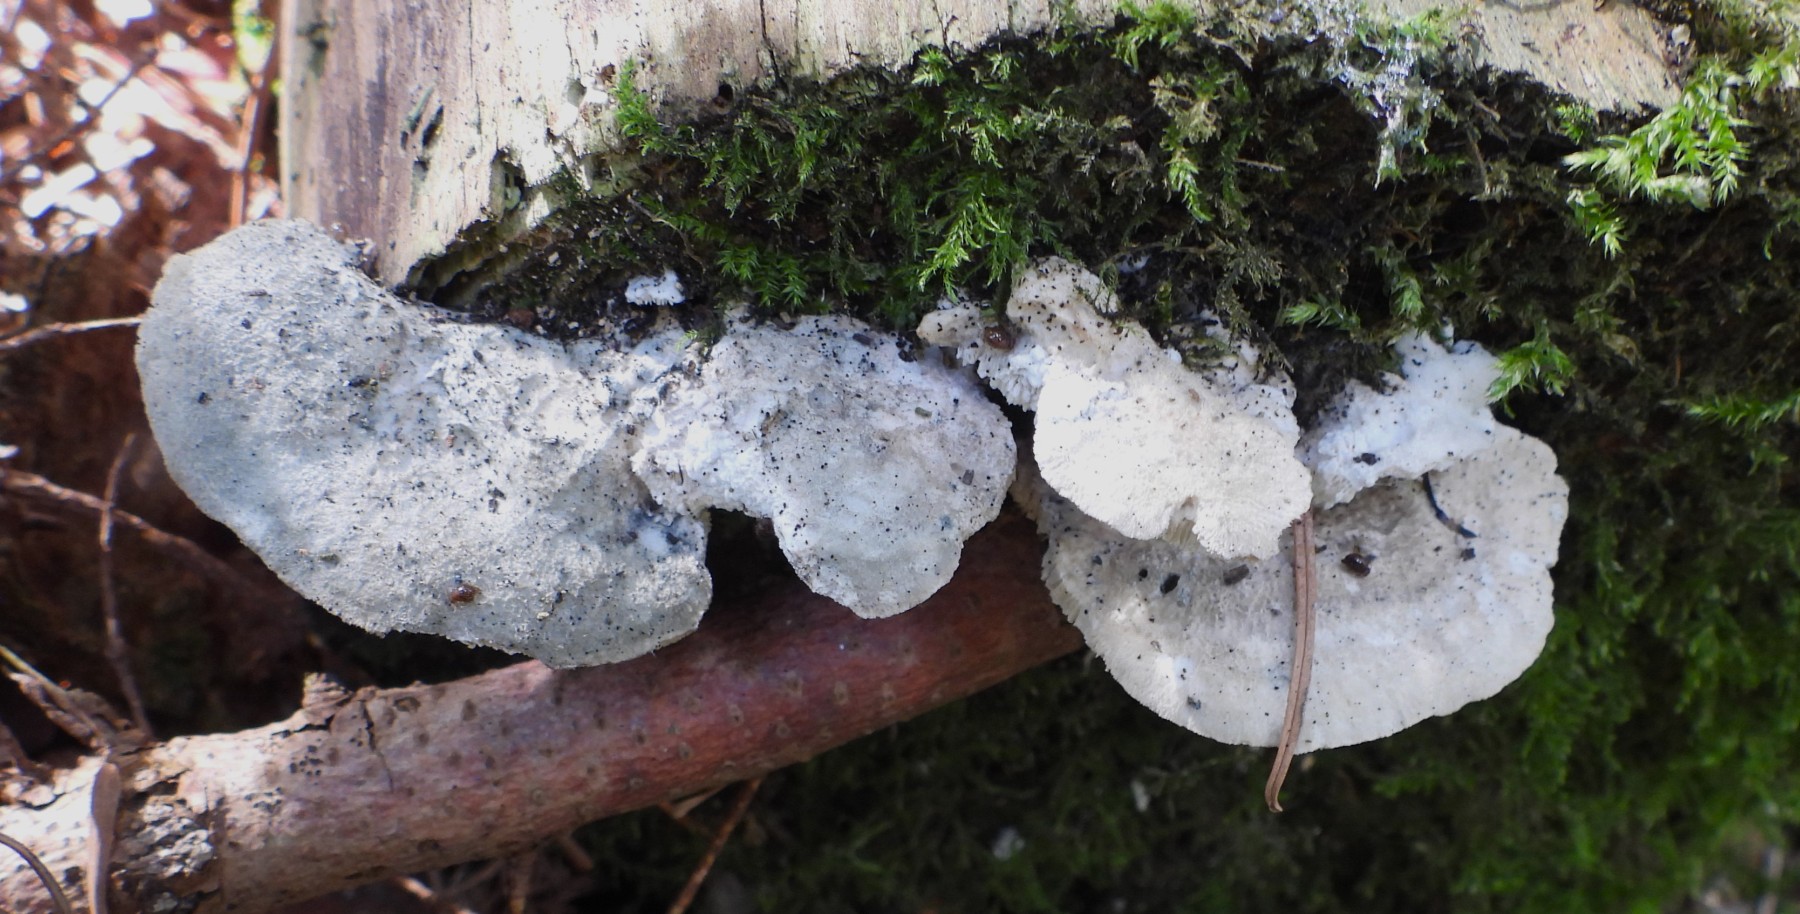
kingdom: Fungi
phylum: Basidiomycota
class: Agaricomycetes
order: Polyporales
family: Polyporaceae
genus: Cyanosporus
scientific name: Cyanosporus caesius
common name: blålig kødporesvamp
